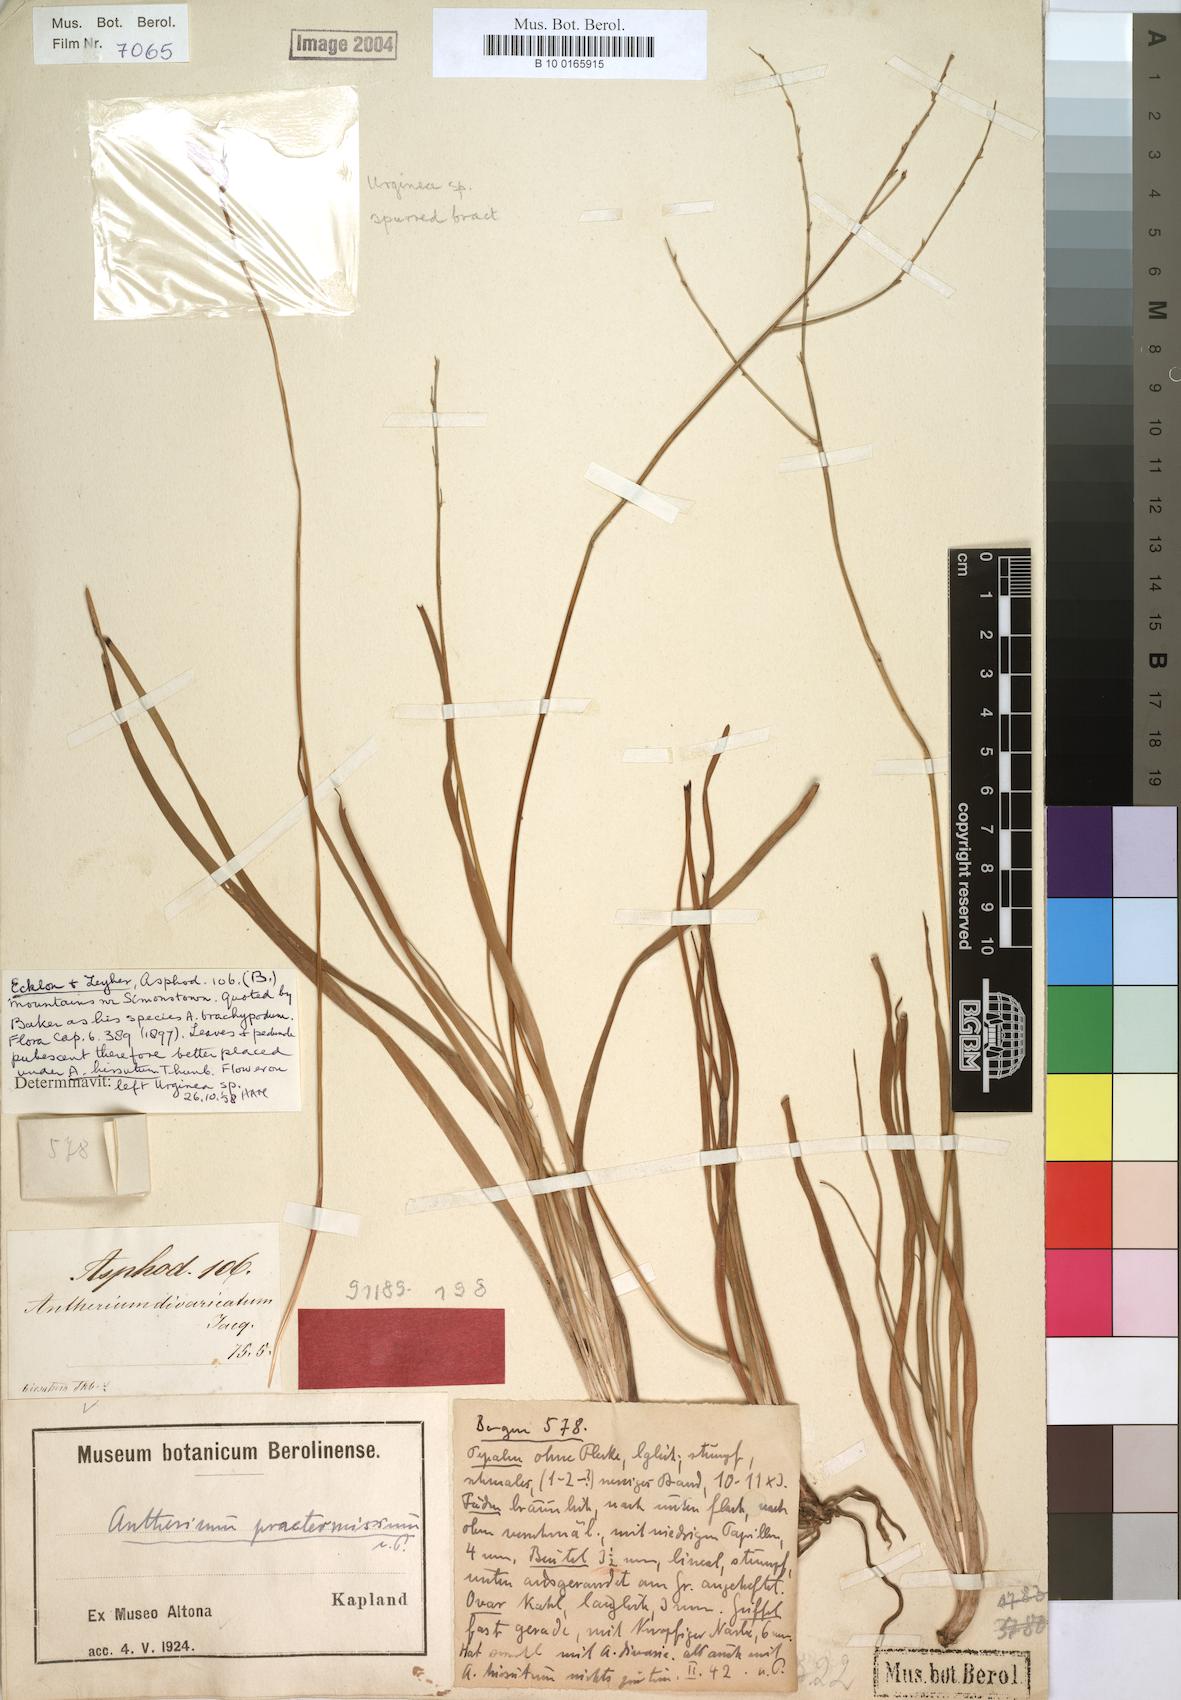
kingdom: Plantae
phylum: Tracheophyta
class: Liliopsida
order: Asparagales
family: Asphodelaceae
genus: Trachyandra
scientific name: Trachyandra hirsuta
